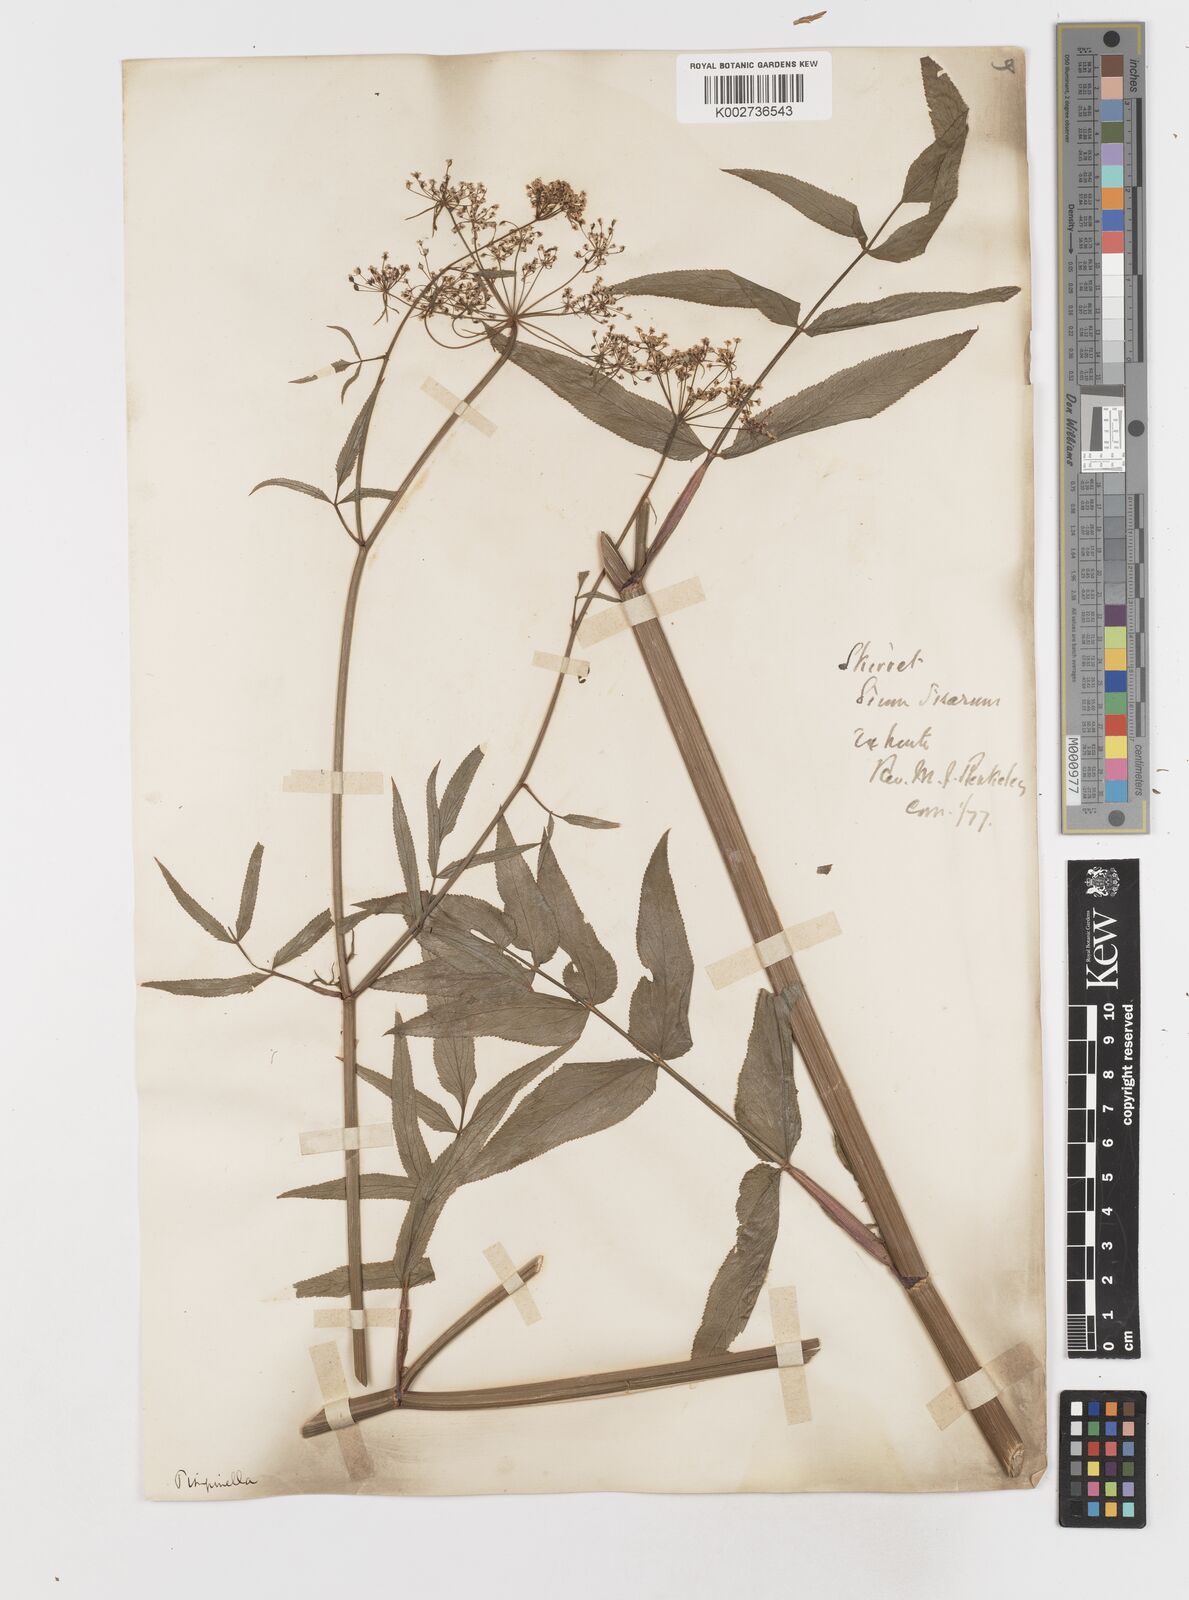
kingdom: Plantae
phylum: Tracheophyta
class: Magnoliopsida
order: Apiales
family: Apiaceae
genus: Sium
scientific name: Sium sisarum
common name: Skirret
